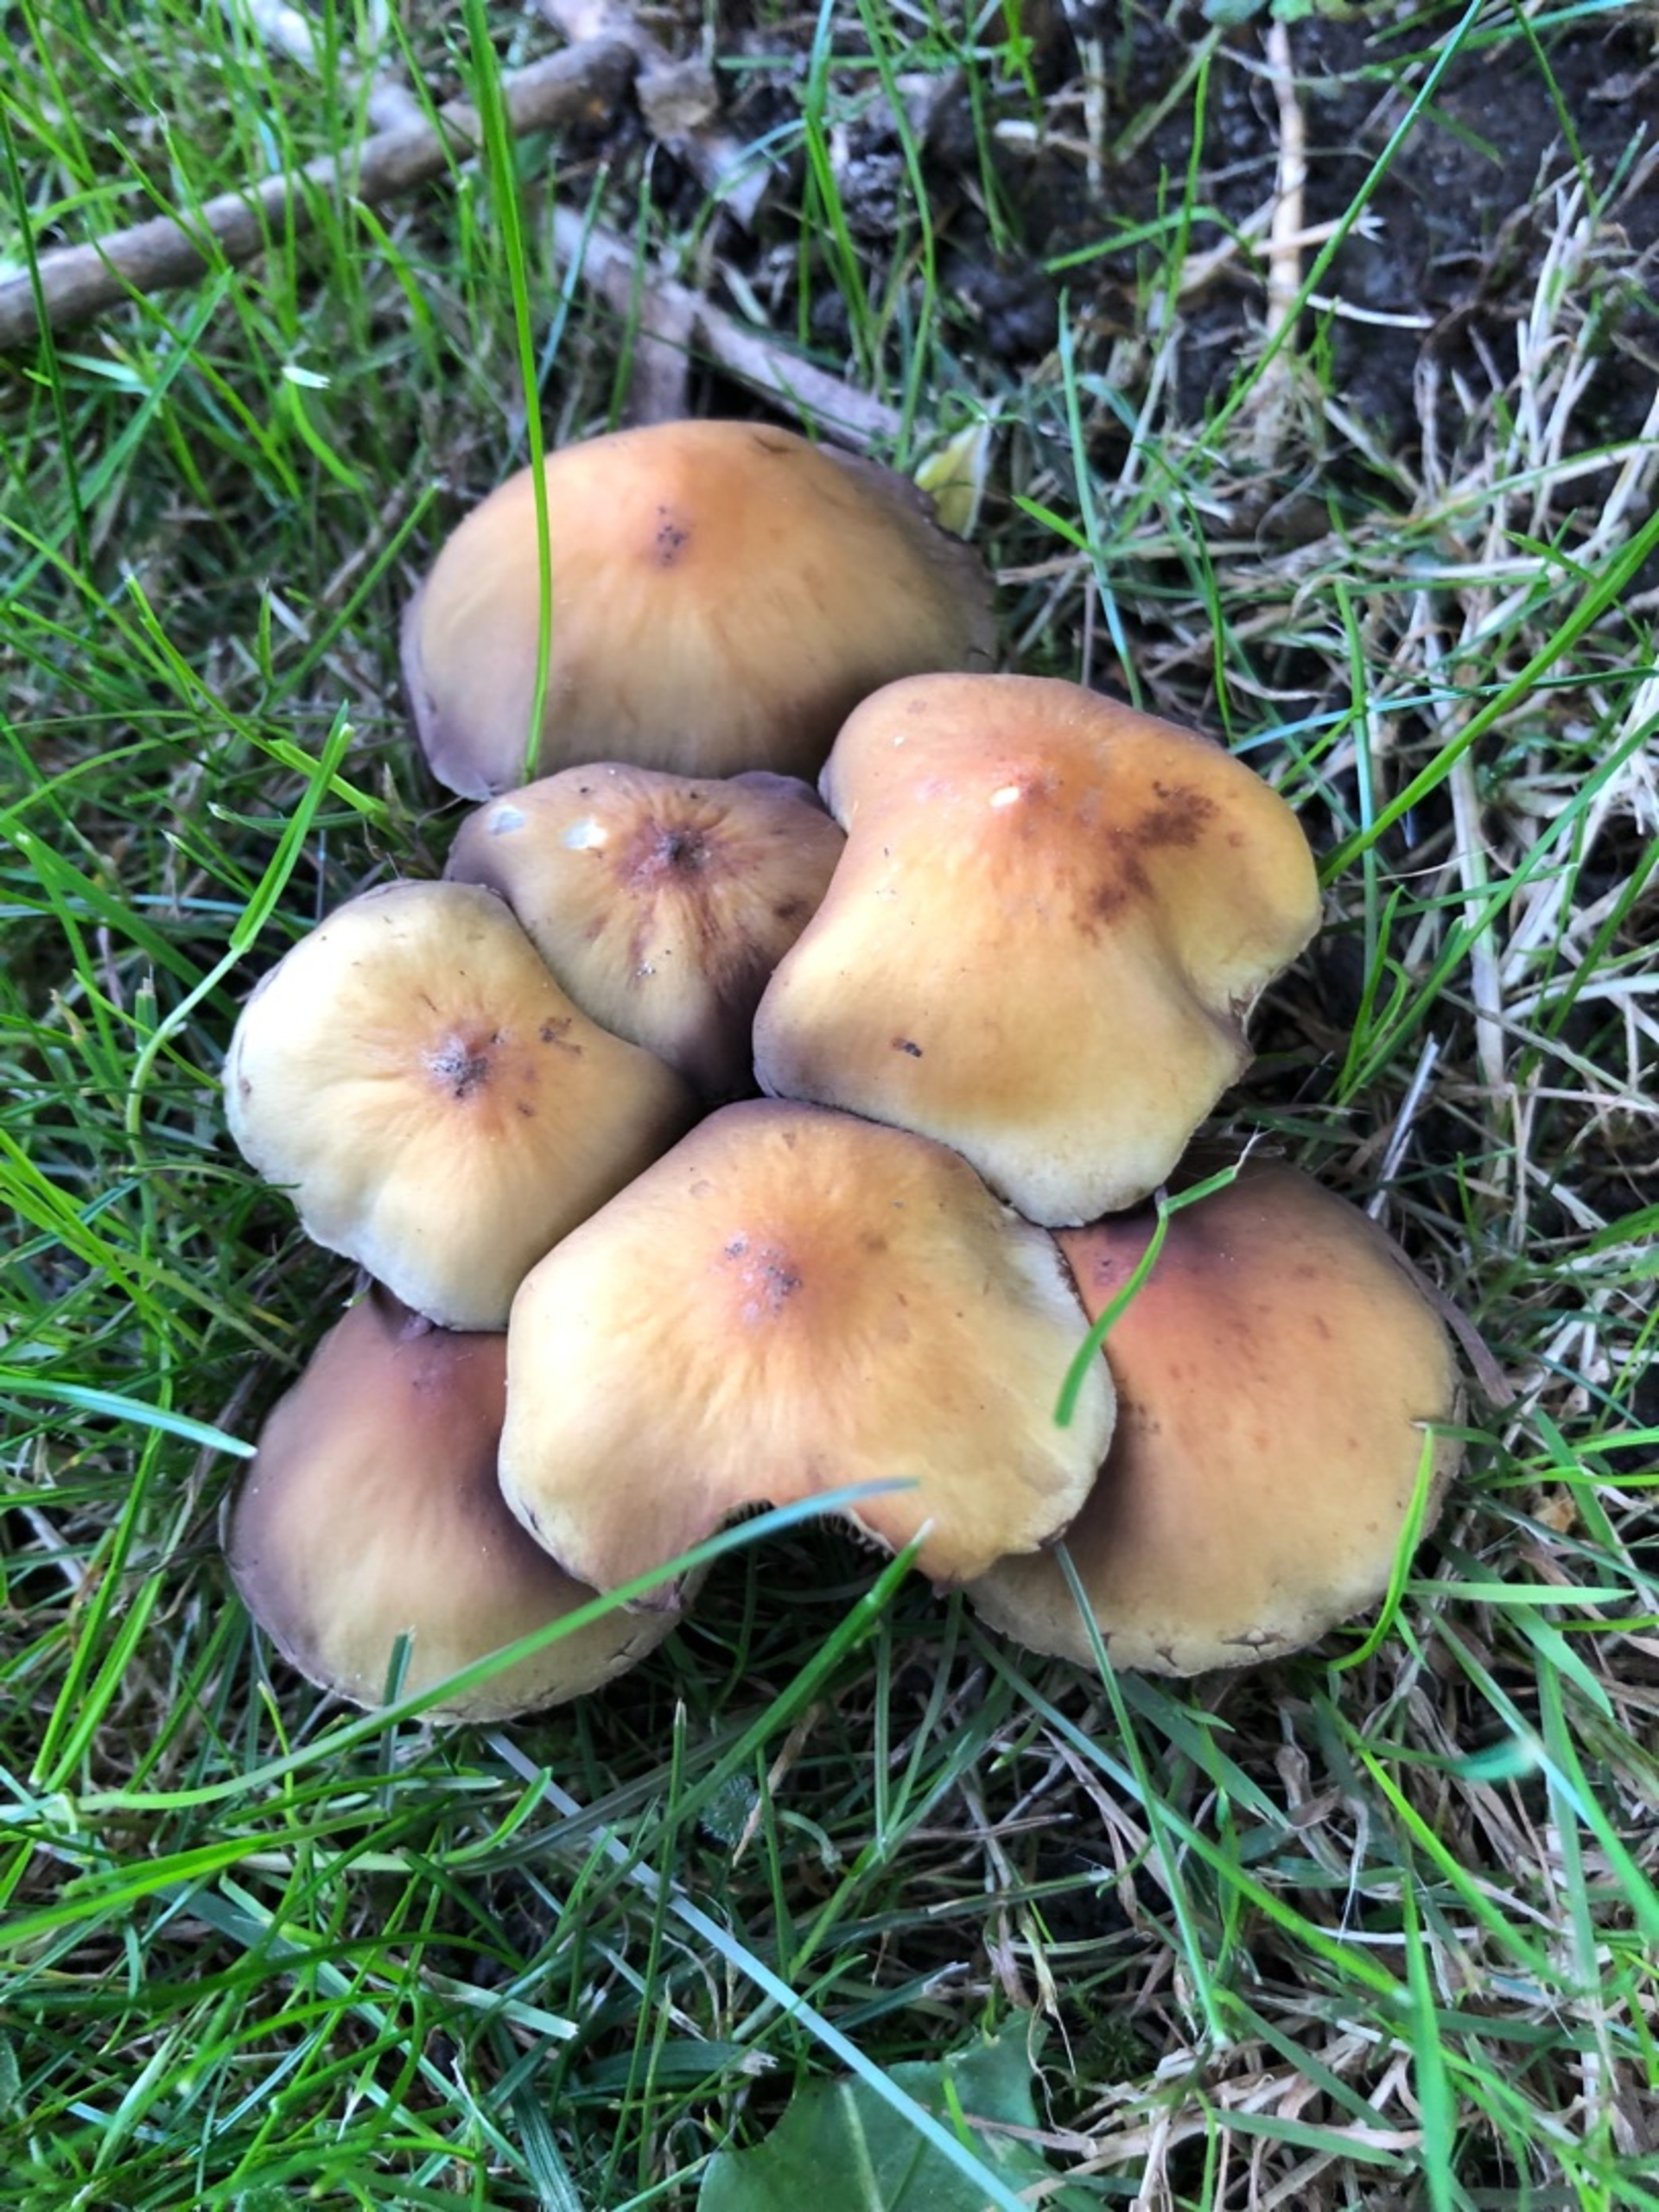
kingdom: Fungi
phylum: Basidiomycota
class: Agaricomycetes
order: Agaricales
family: Strophariaceae
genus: Hypholoma
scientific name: Hypholoma fasciculare
